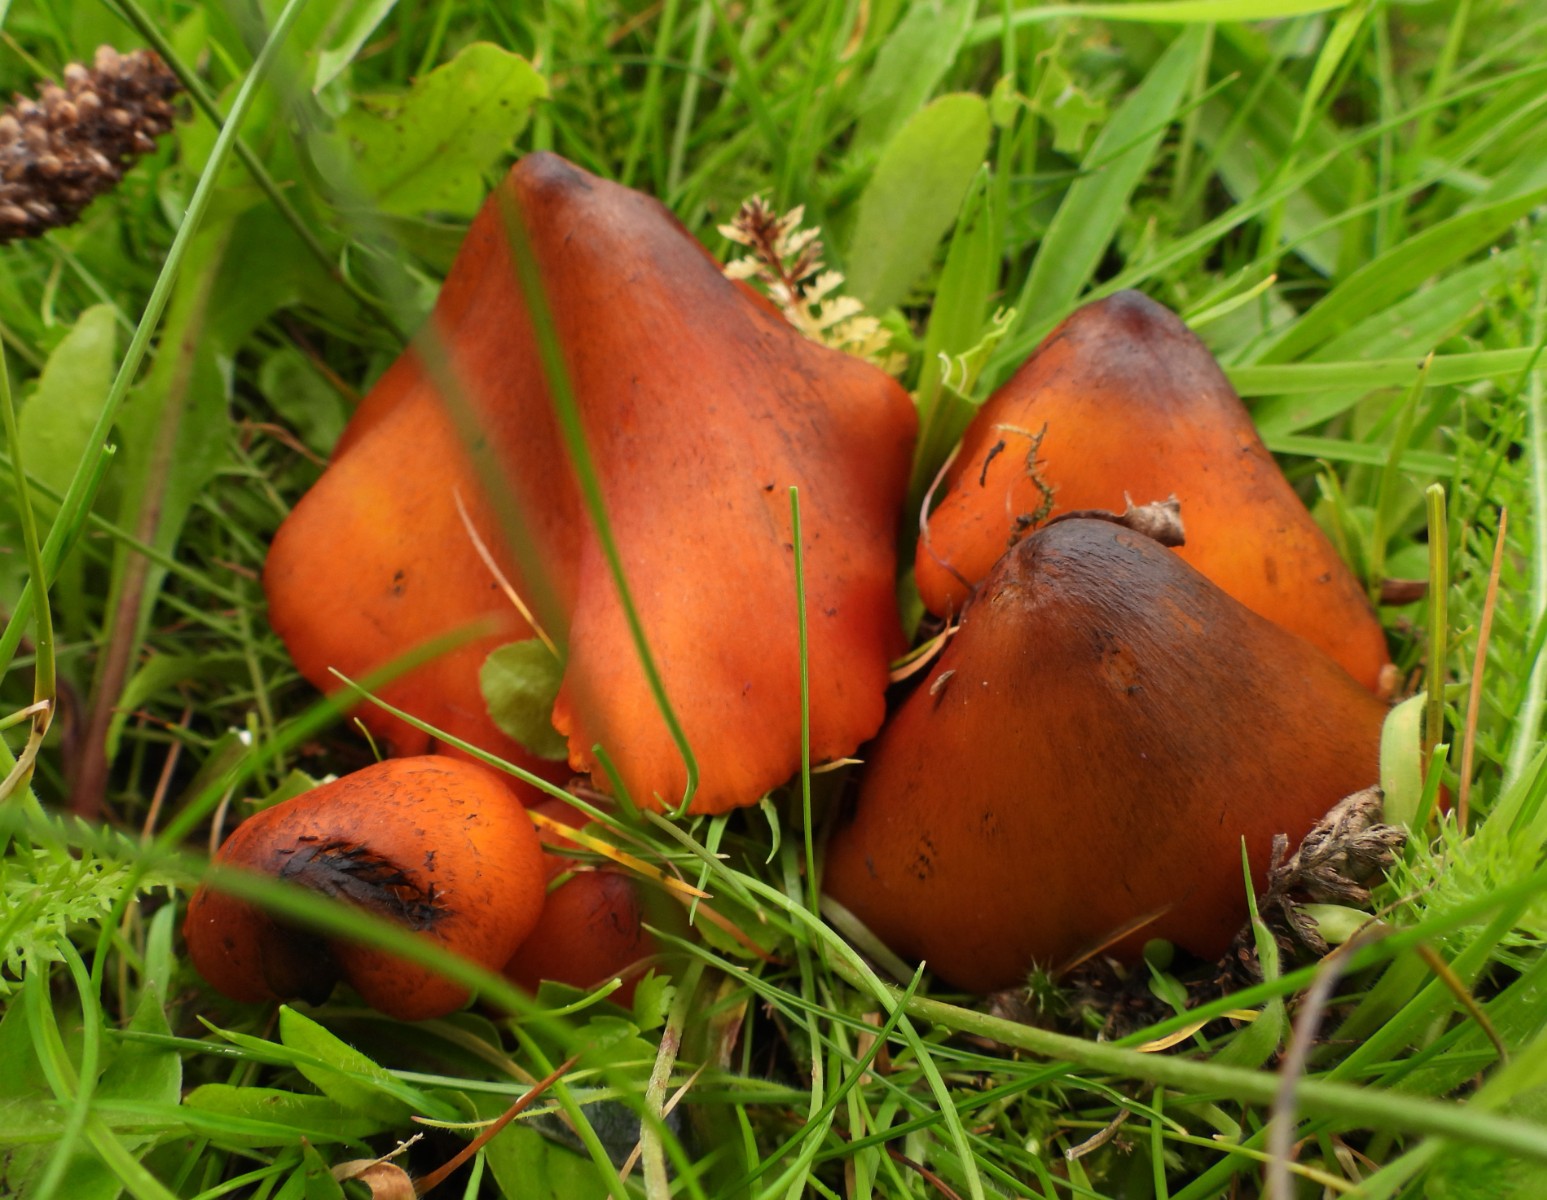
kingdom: Fungi
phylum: Basidiomycota
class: Agaricomycetes
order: Agaricales
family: Hygrophoraceae
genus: Hygrocybe
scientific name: Hygrocybe conica
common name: kegle-vokshat
